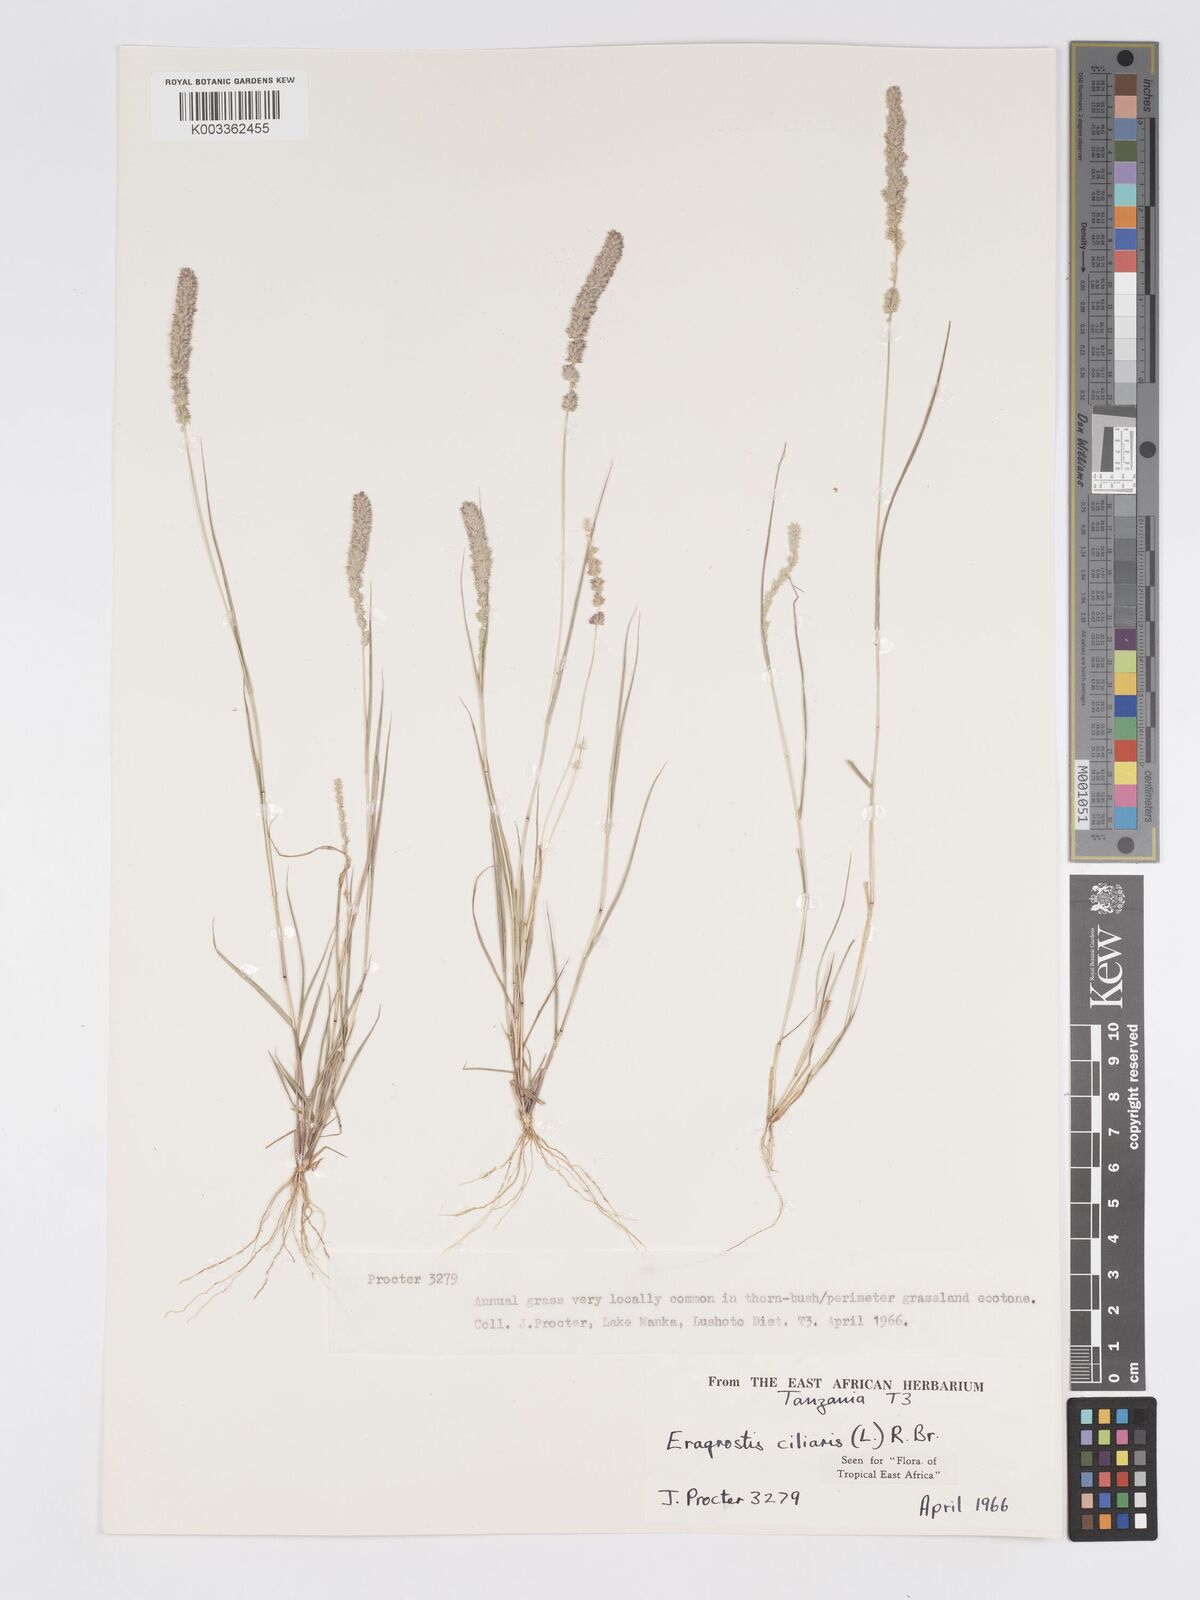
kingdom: Plantae
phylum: Tracheophyta
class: Liliopsida
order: Poales
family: Poaceae
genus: Eragrostis
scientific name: Eragrostis ciliaris
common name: Gophertail lovegrass
